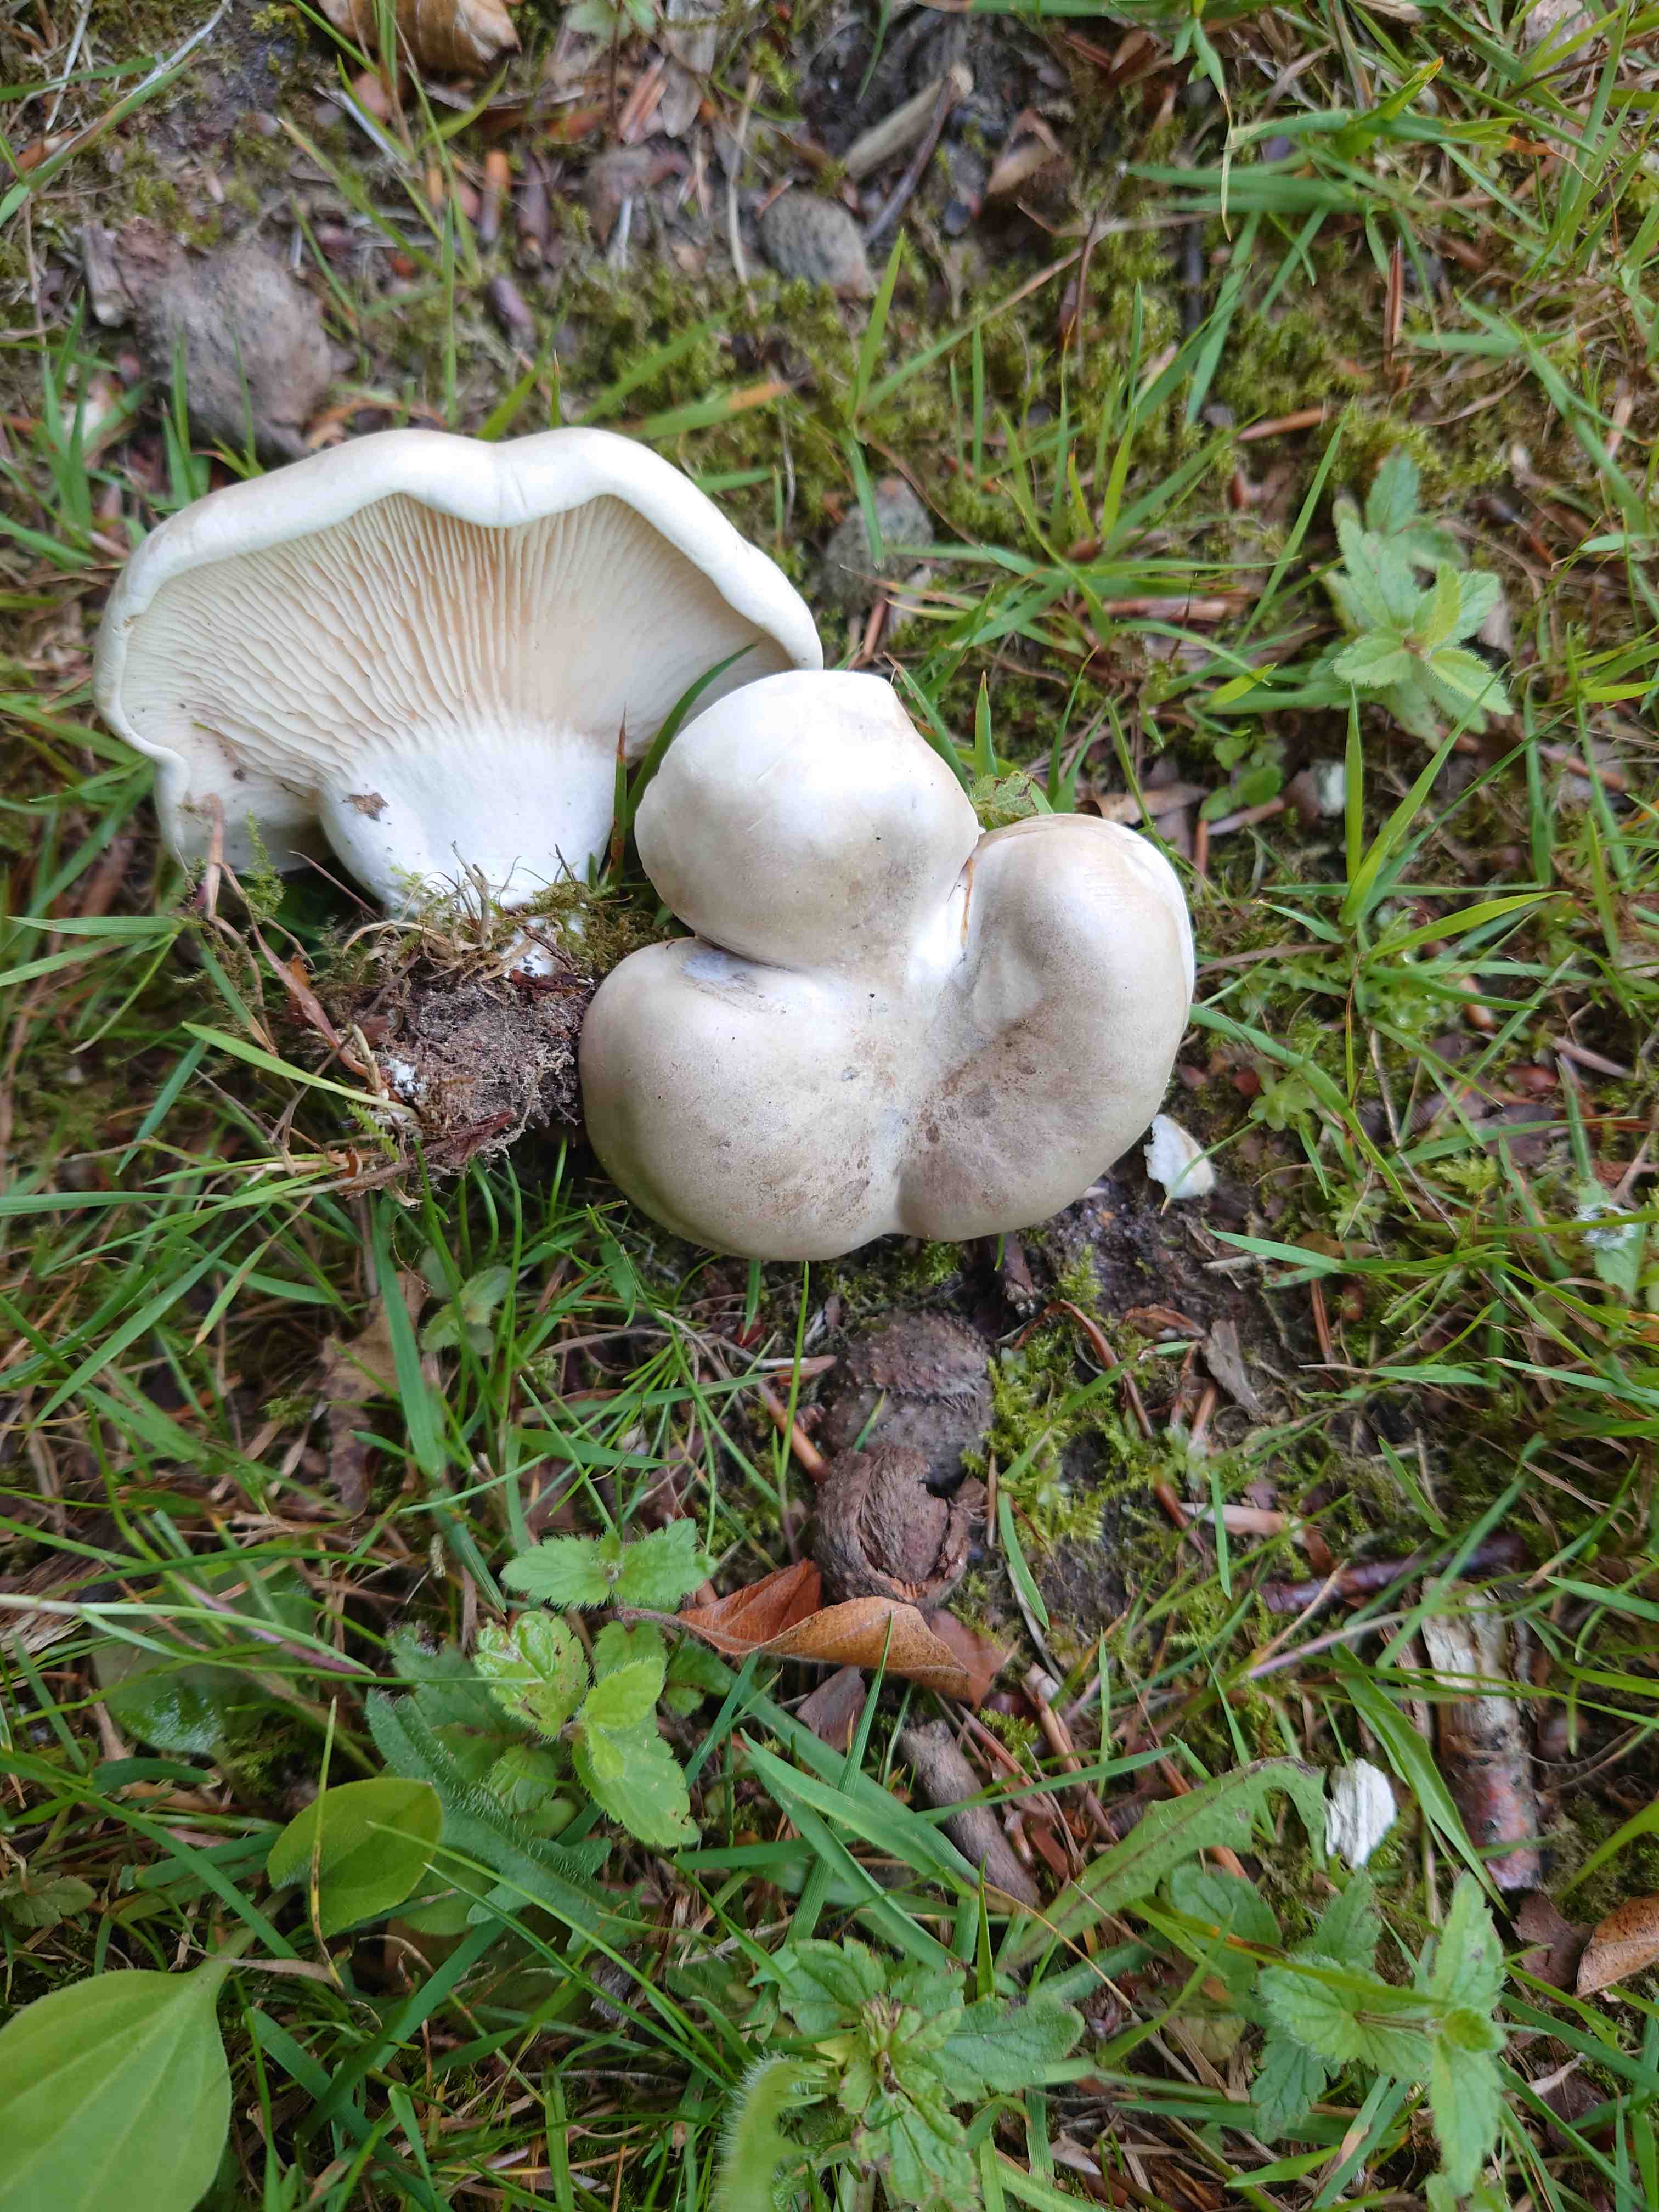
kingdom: Fungi
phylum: Basidiomycota
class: Agaricomycetes
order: Agaricales
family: Entolomataceae
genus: Clitopilus
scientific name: Clitopilus prunulus
